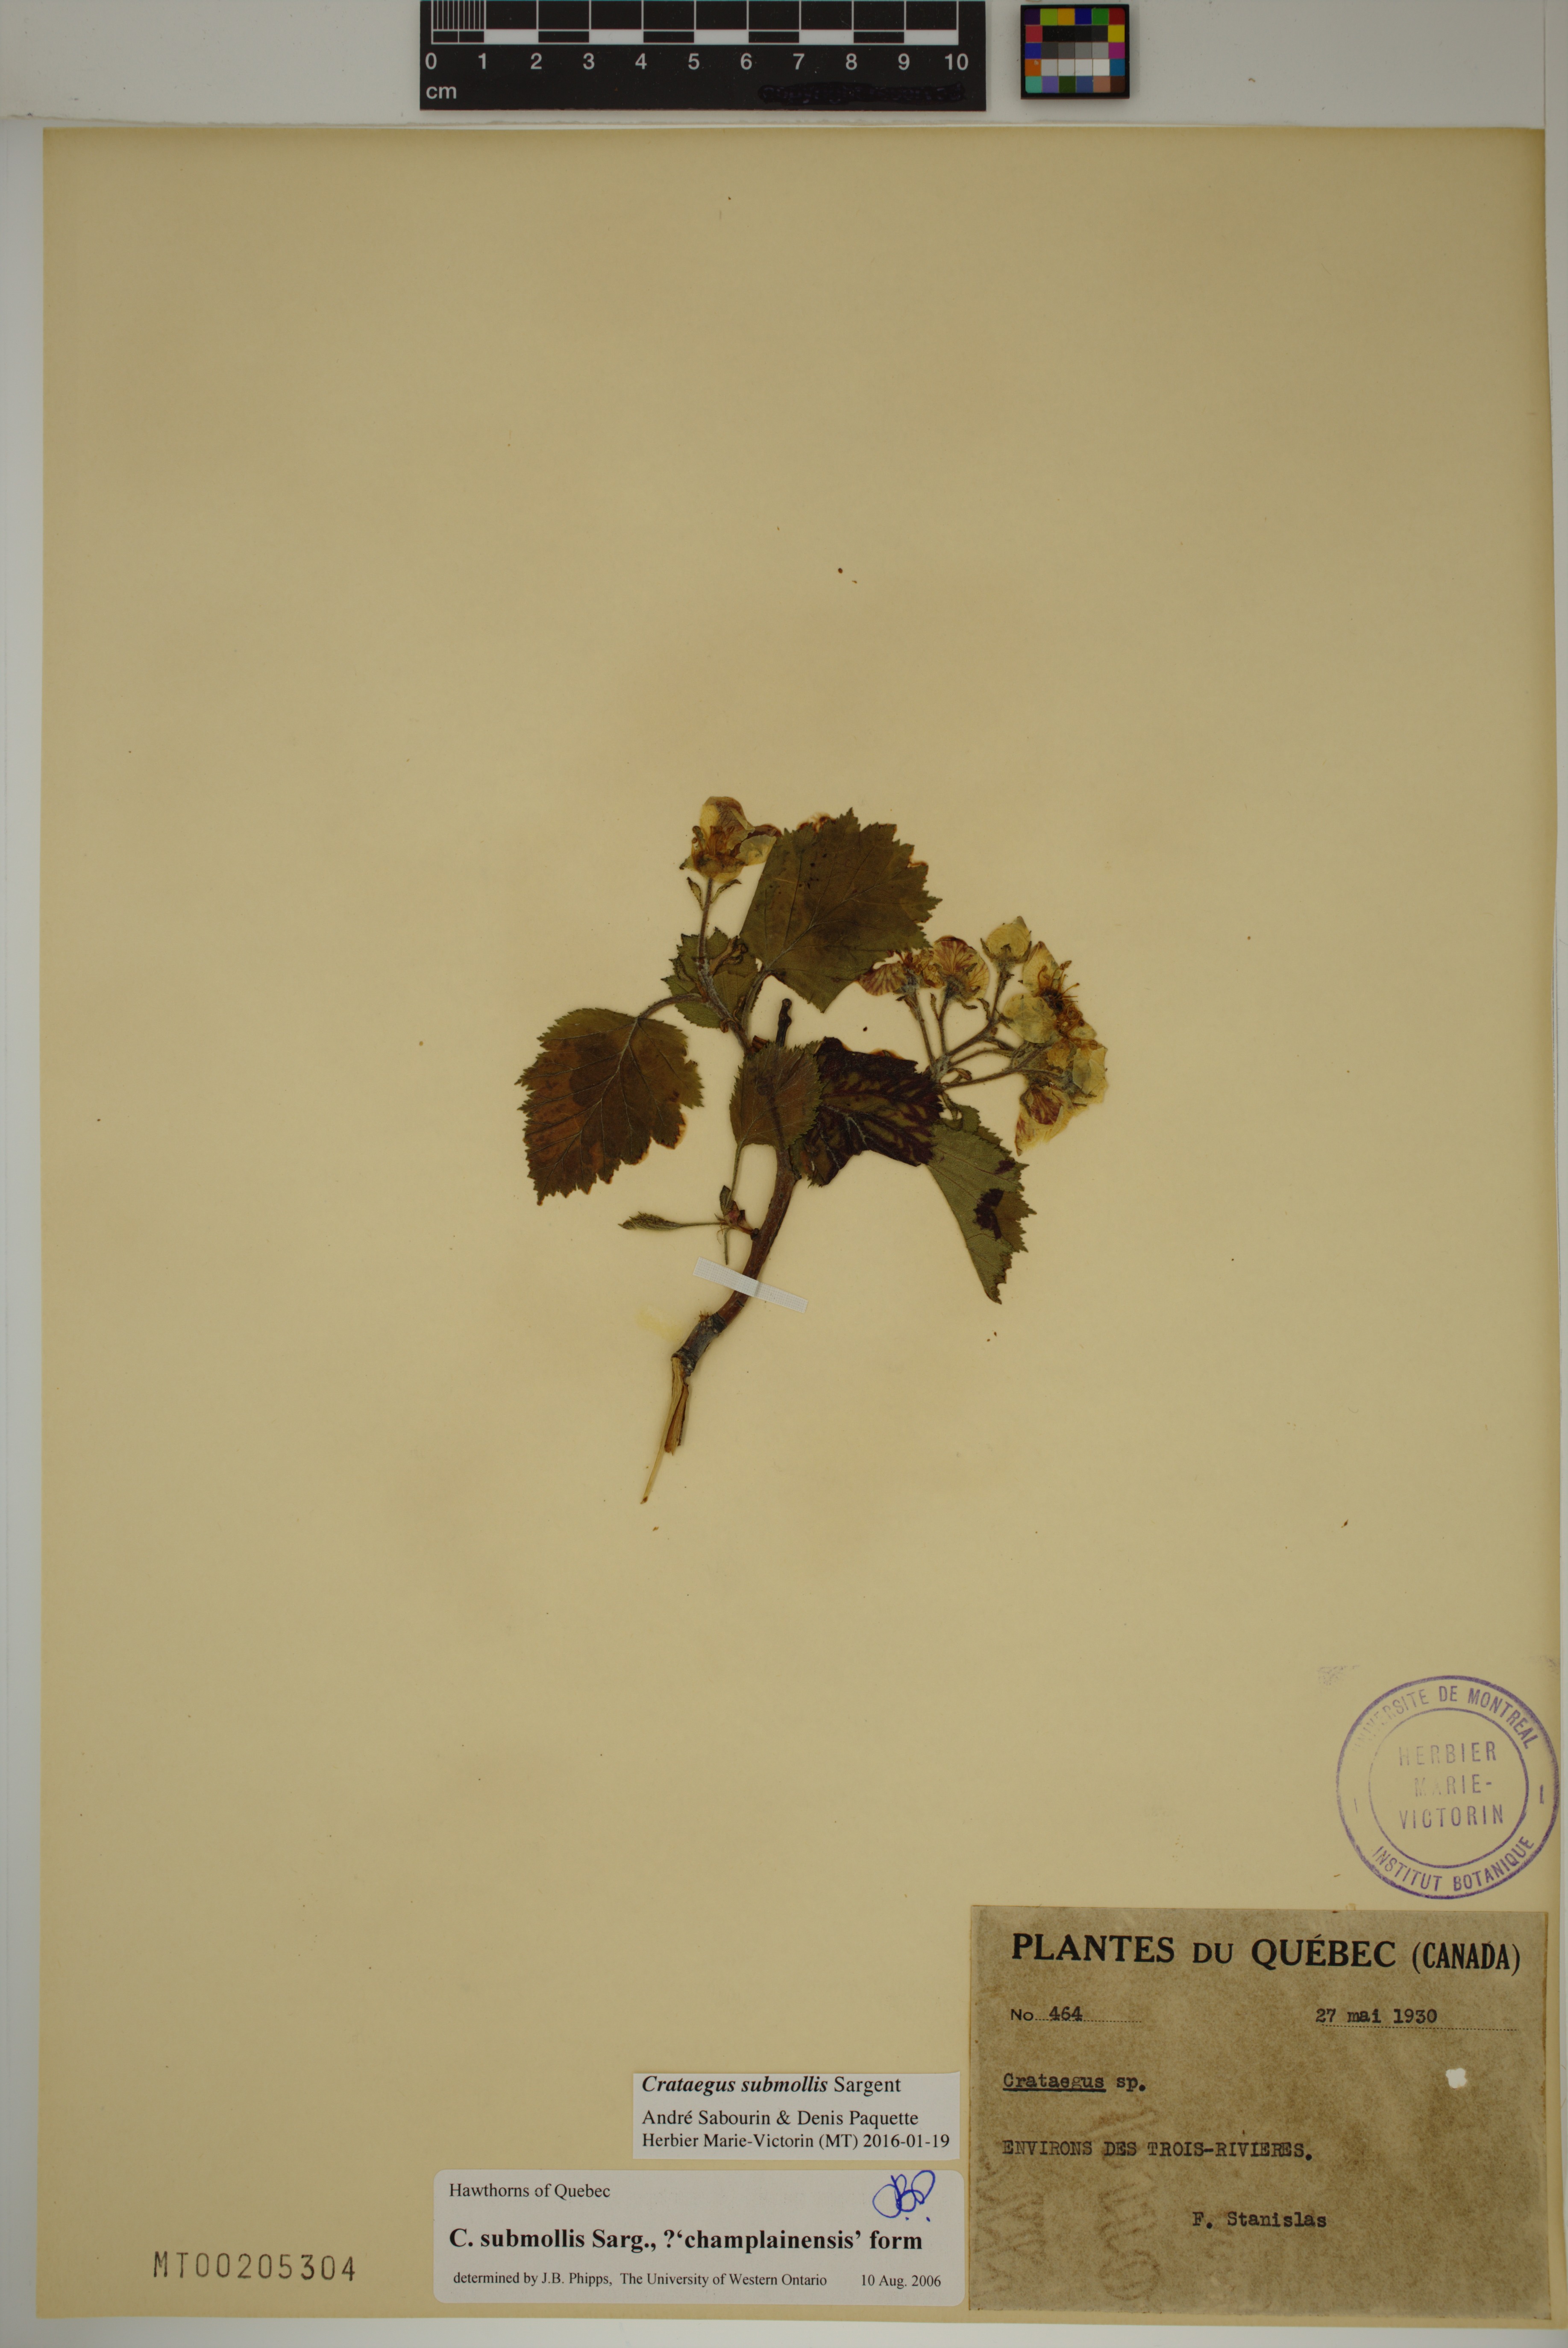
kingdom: Plantae
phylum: Tracheophyta
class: Magnoliopsida
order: Rosales
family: Rosaceae
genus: Crataegus
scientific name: Crataegus submollis
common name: Hairy cockspurthorn
